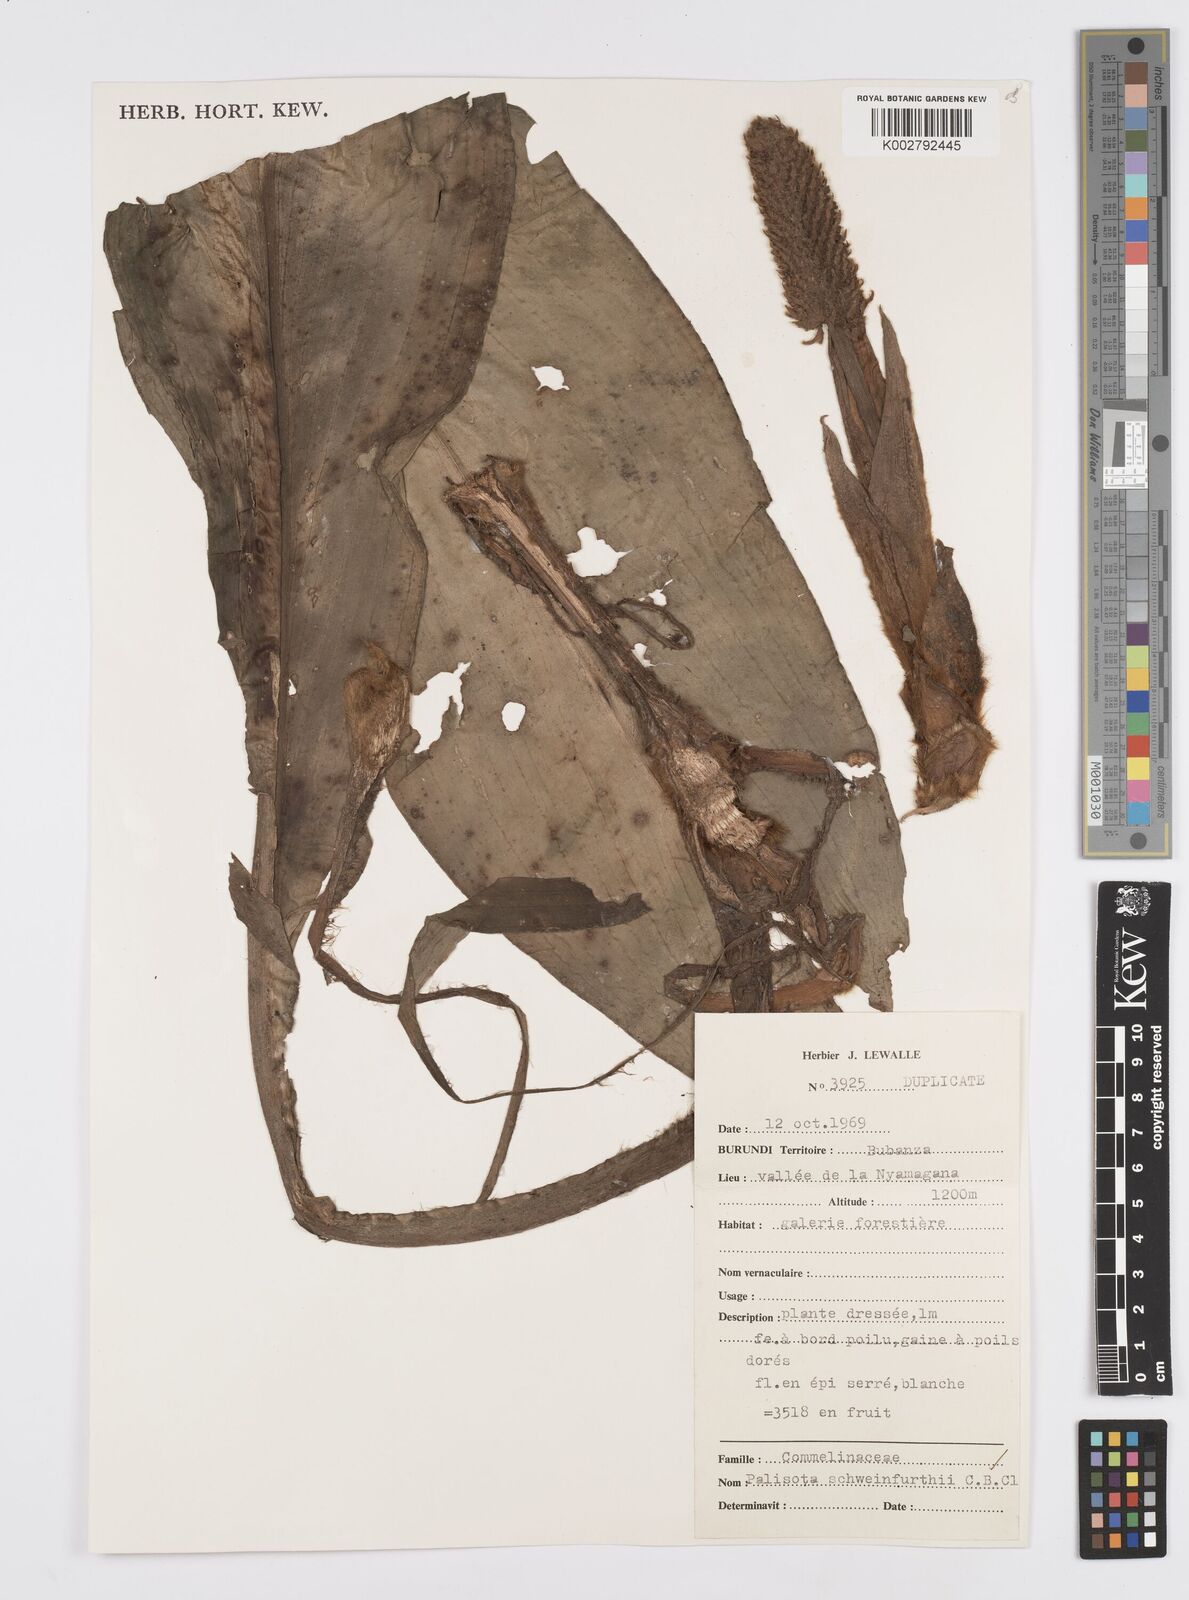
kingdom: Plantae
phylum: Tracheophyta
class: Liliopsida
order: Commelinales
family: Commelinaceae
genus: Palisota
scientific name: Palisota schweinfurthii
